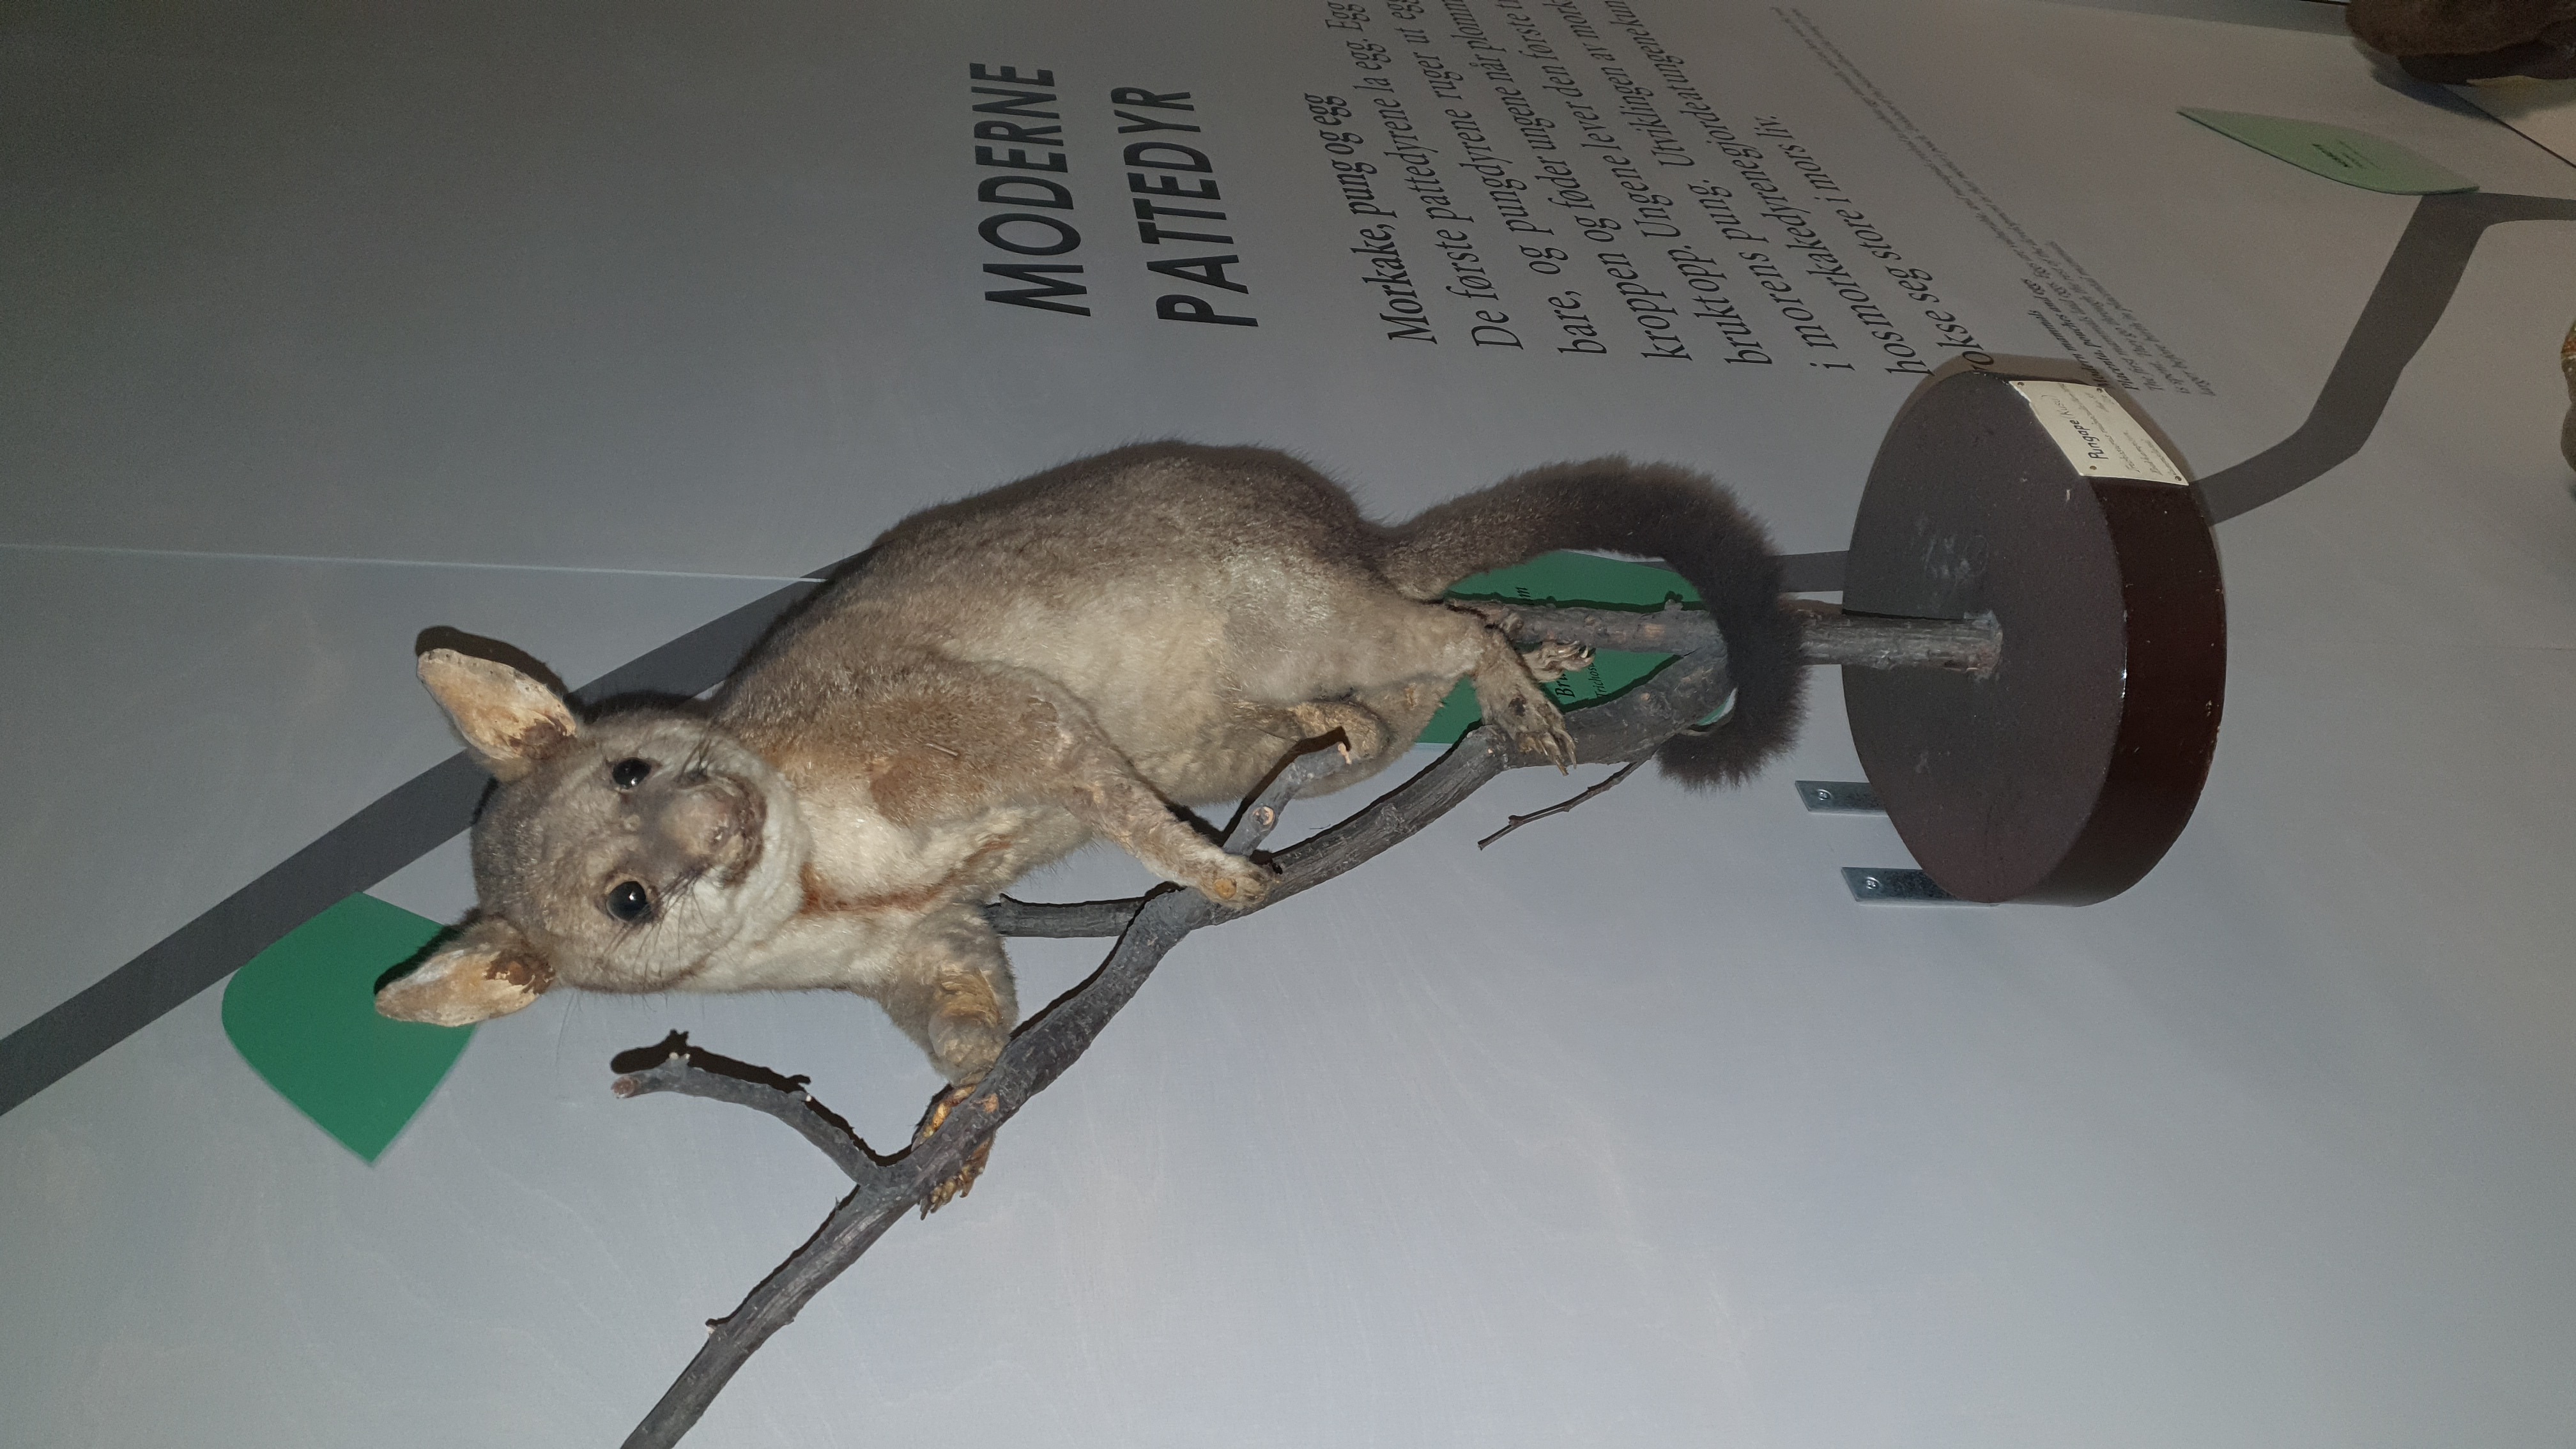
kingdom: Animalia
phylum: Chordata
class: Mammalia
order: Diprotodontia
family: Phalangeridae
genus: Trichosurus
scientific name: Trichosurus vulpecula
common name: Common brushtail
